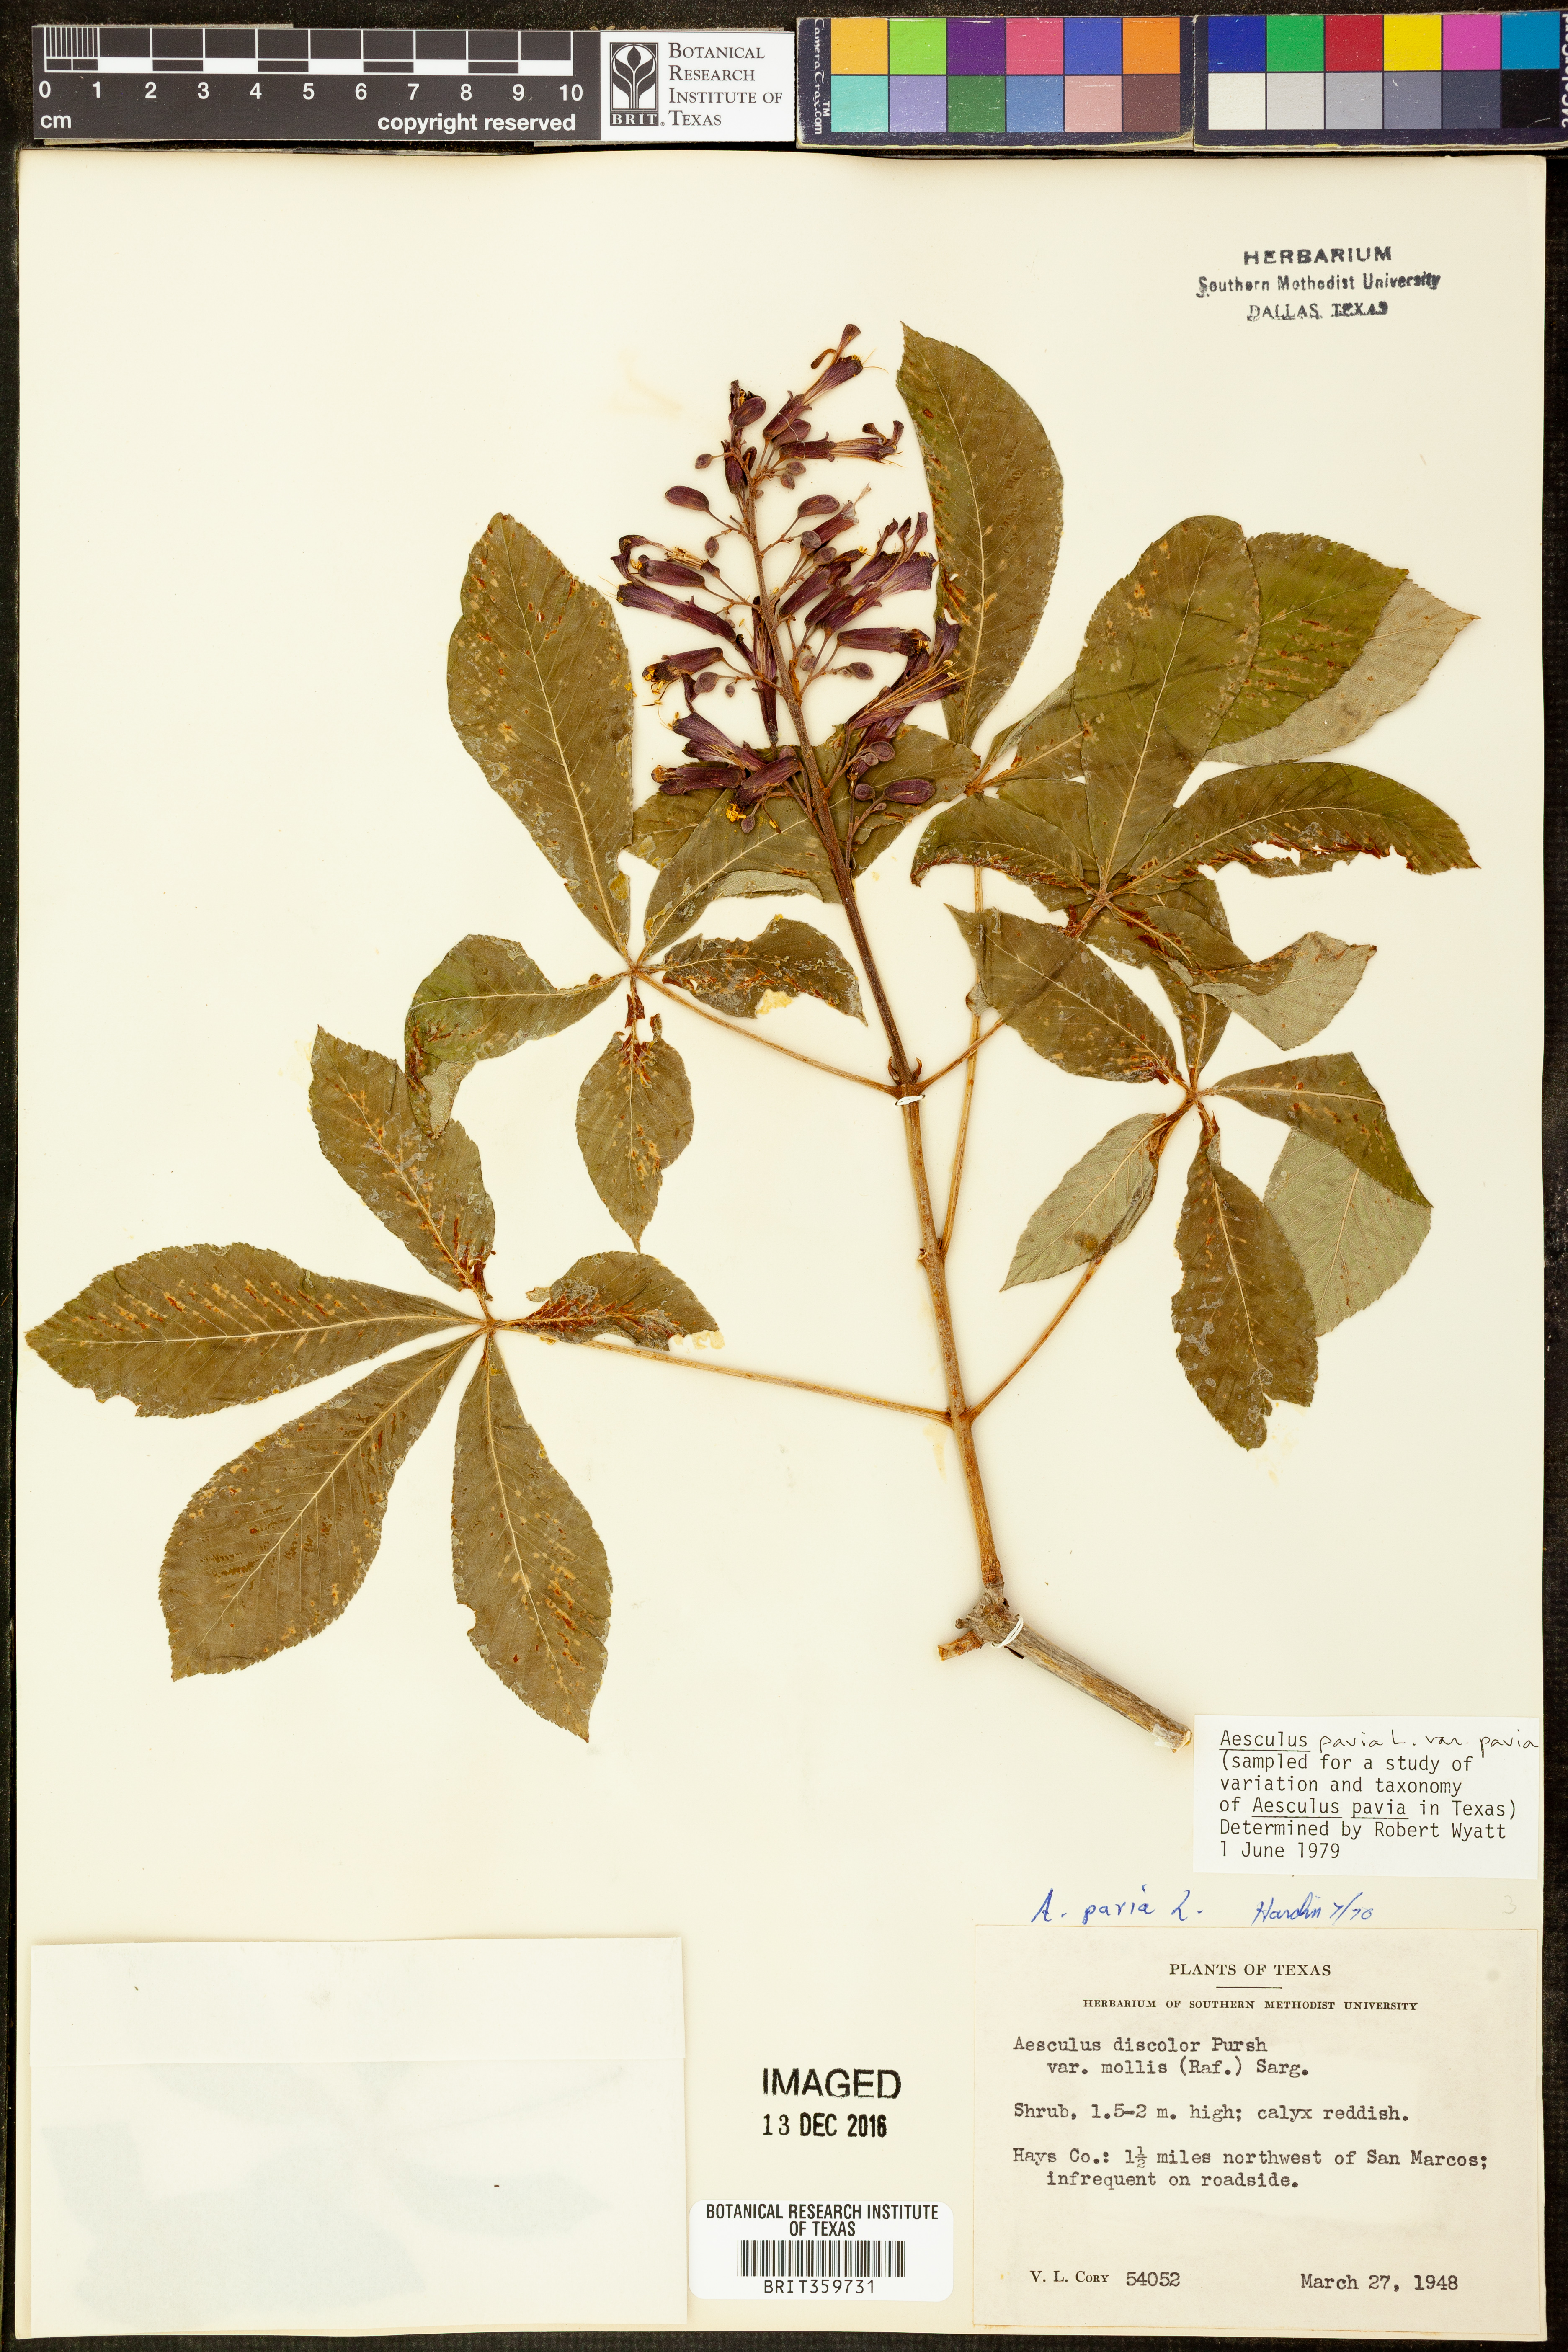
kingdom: Plantae
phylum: Tracheophyta
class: Magnoliopsida
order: Sapindales
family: Sapindaceae
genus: Aesculus
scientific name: Aesculus pavia
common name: Red buckeye
